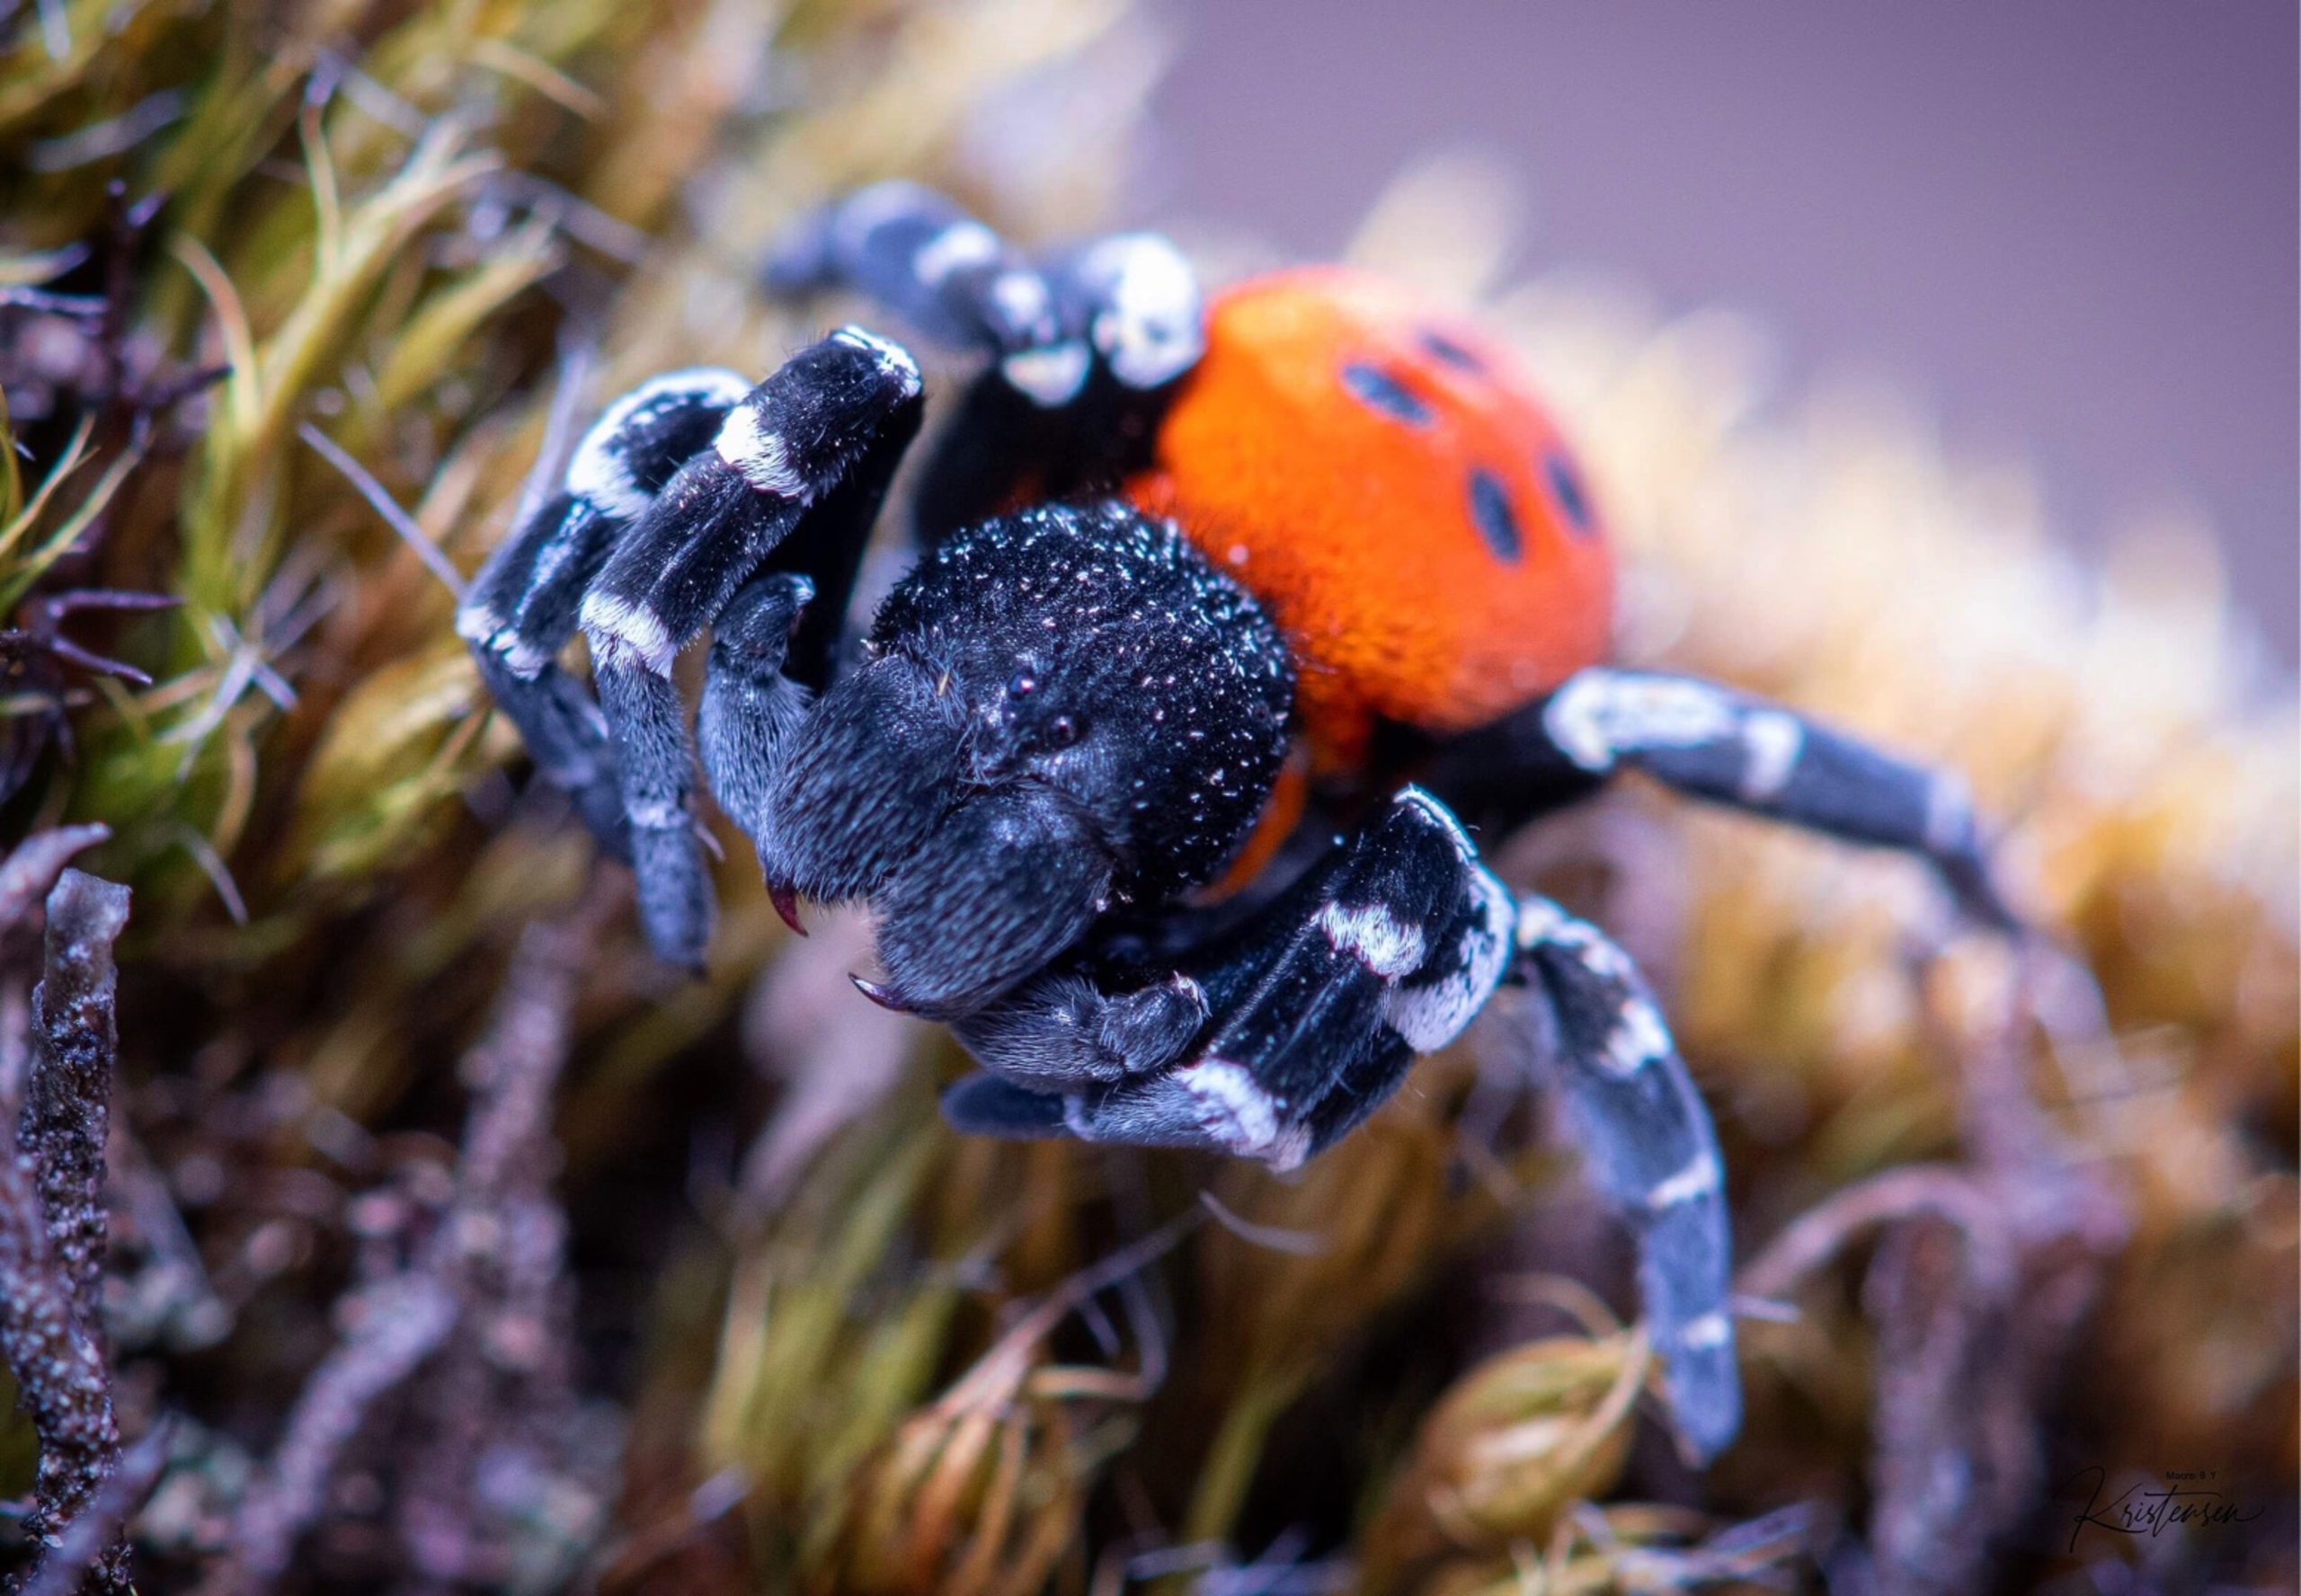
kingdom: Animalia
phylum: Arthropoda
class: Arachnida
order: Araneae
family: Eresidae
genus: Eresus
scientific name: Eresus sandaliatus
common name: Mariehøneedderkop
